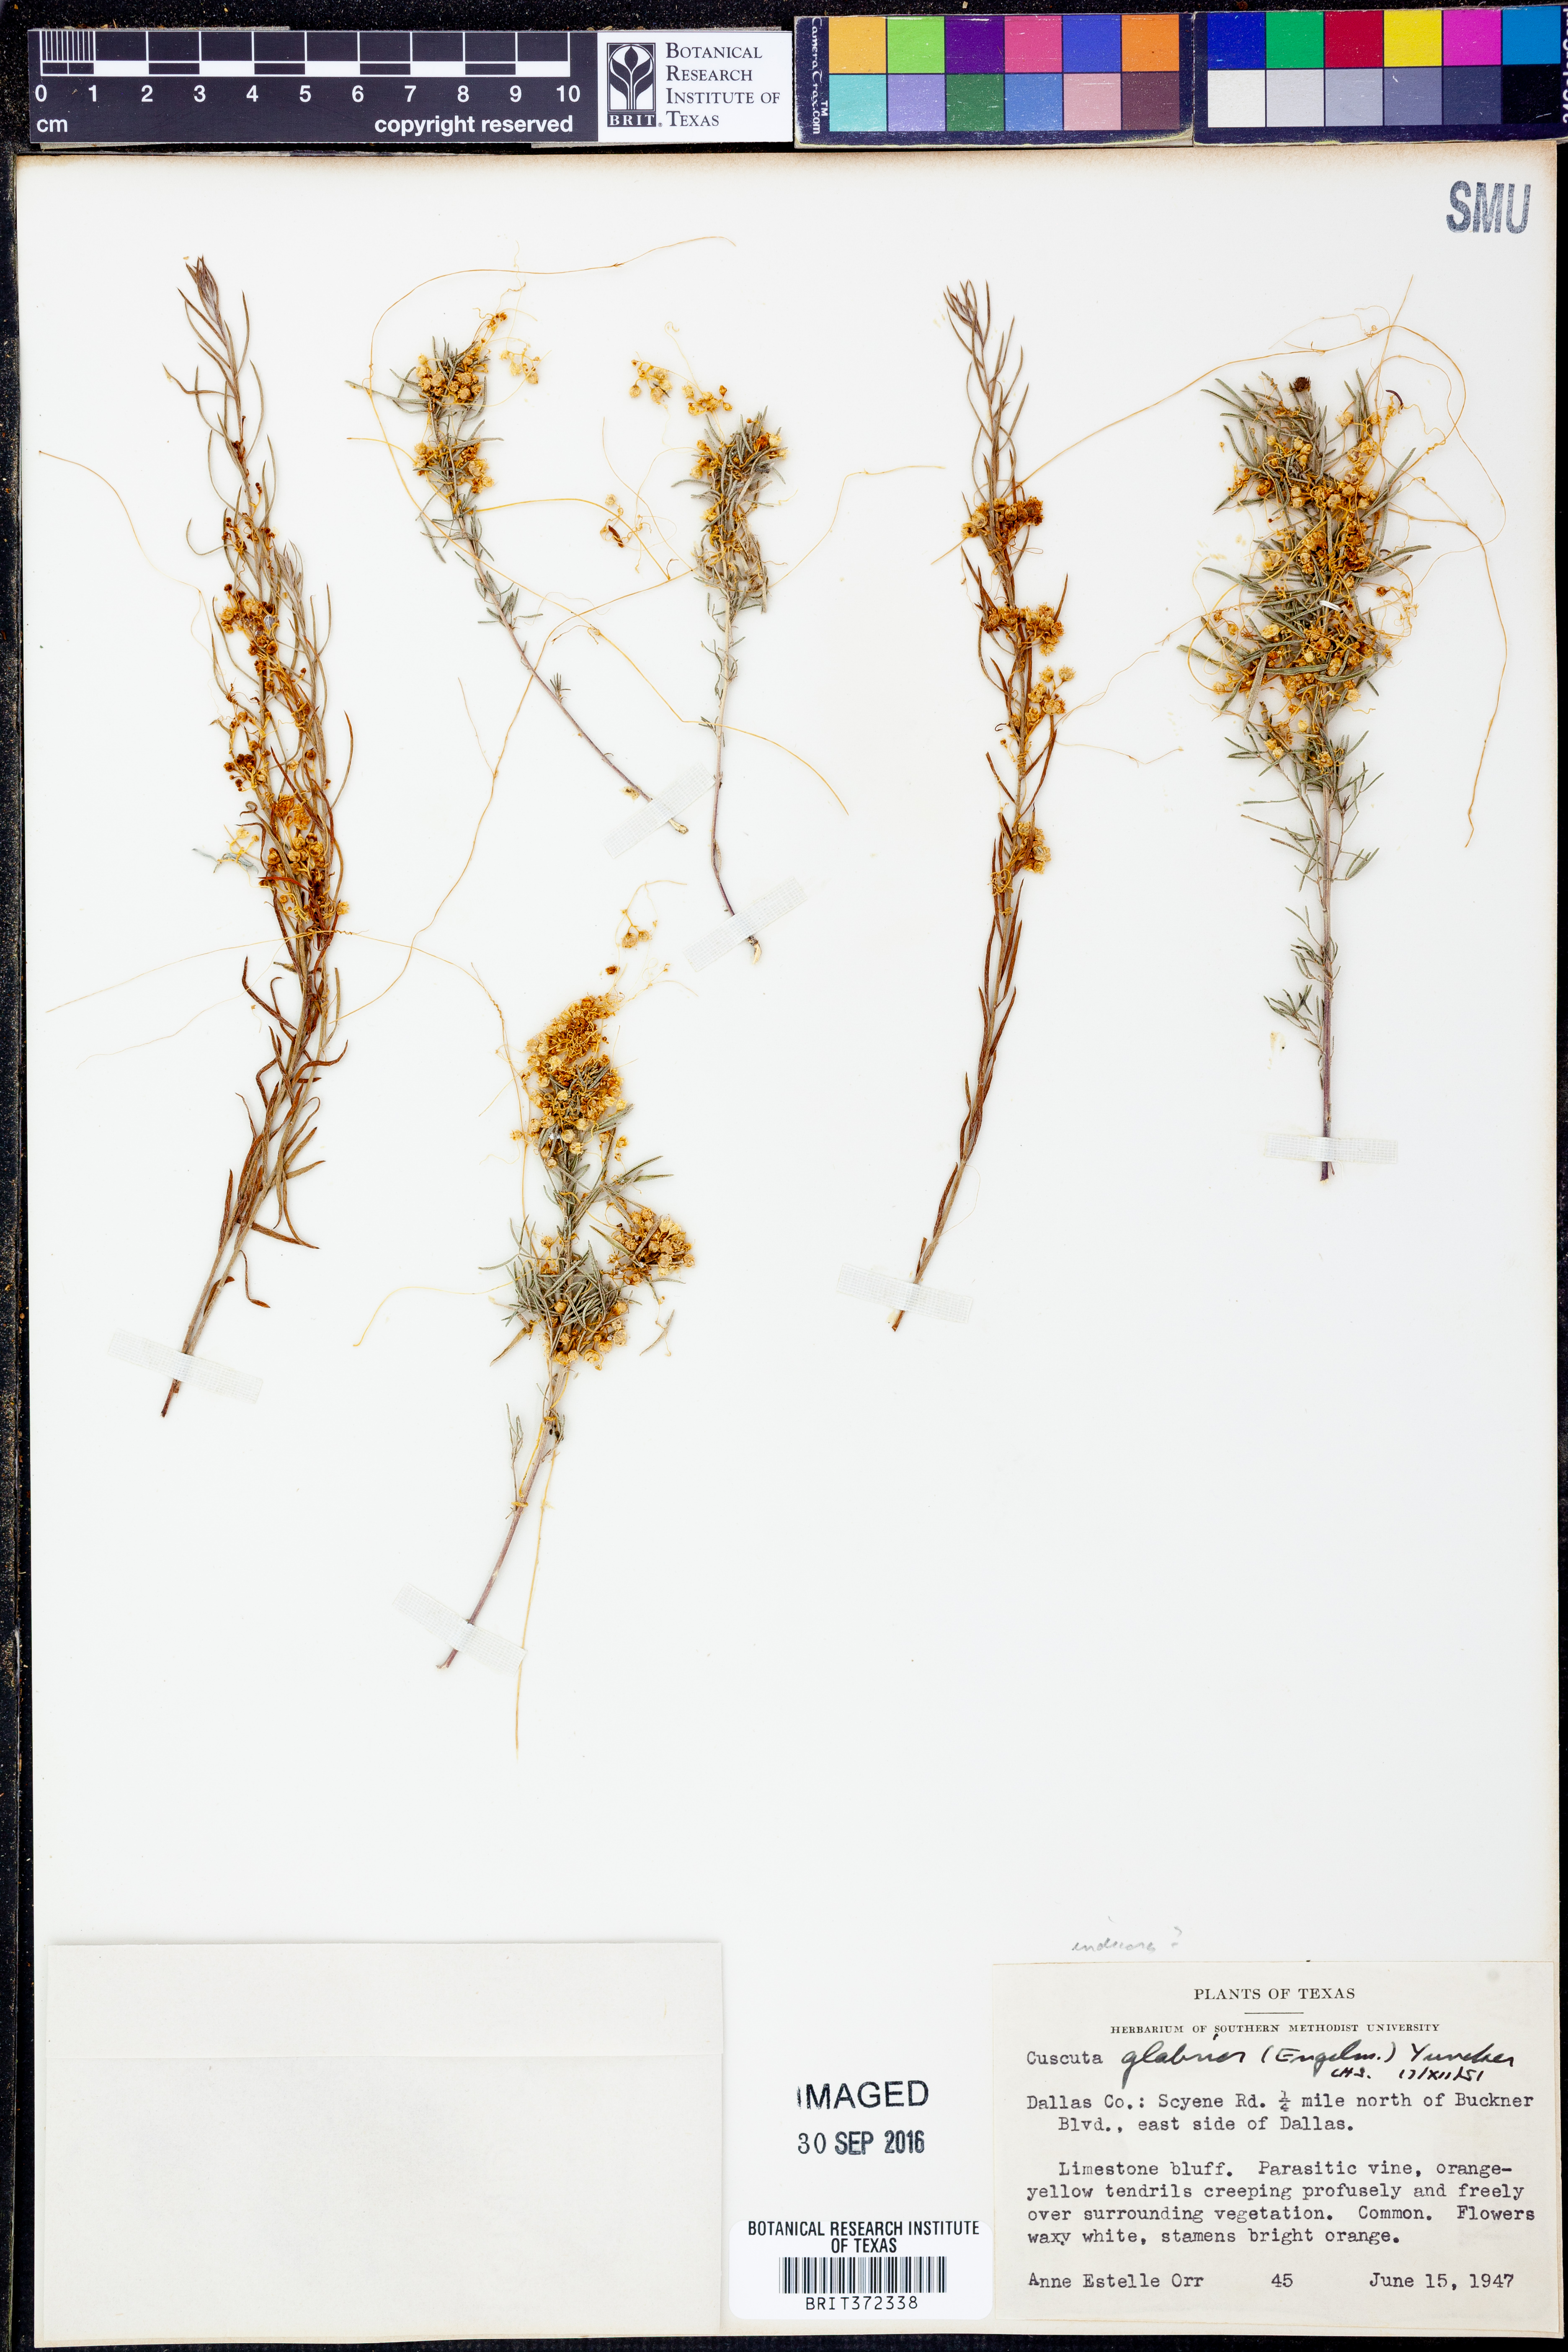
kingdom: Plantae
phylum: Tracheophyta
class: Magnoliopsida
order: Solanales
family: Convolvulaceae
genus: Cuscuta
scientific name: Cuscuta glabrior
